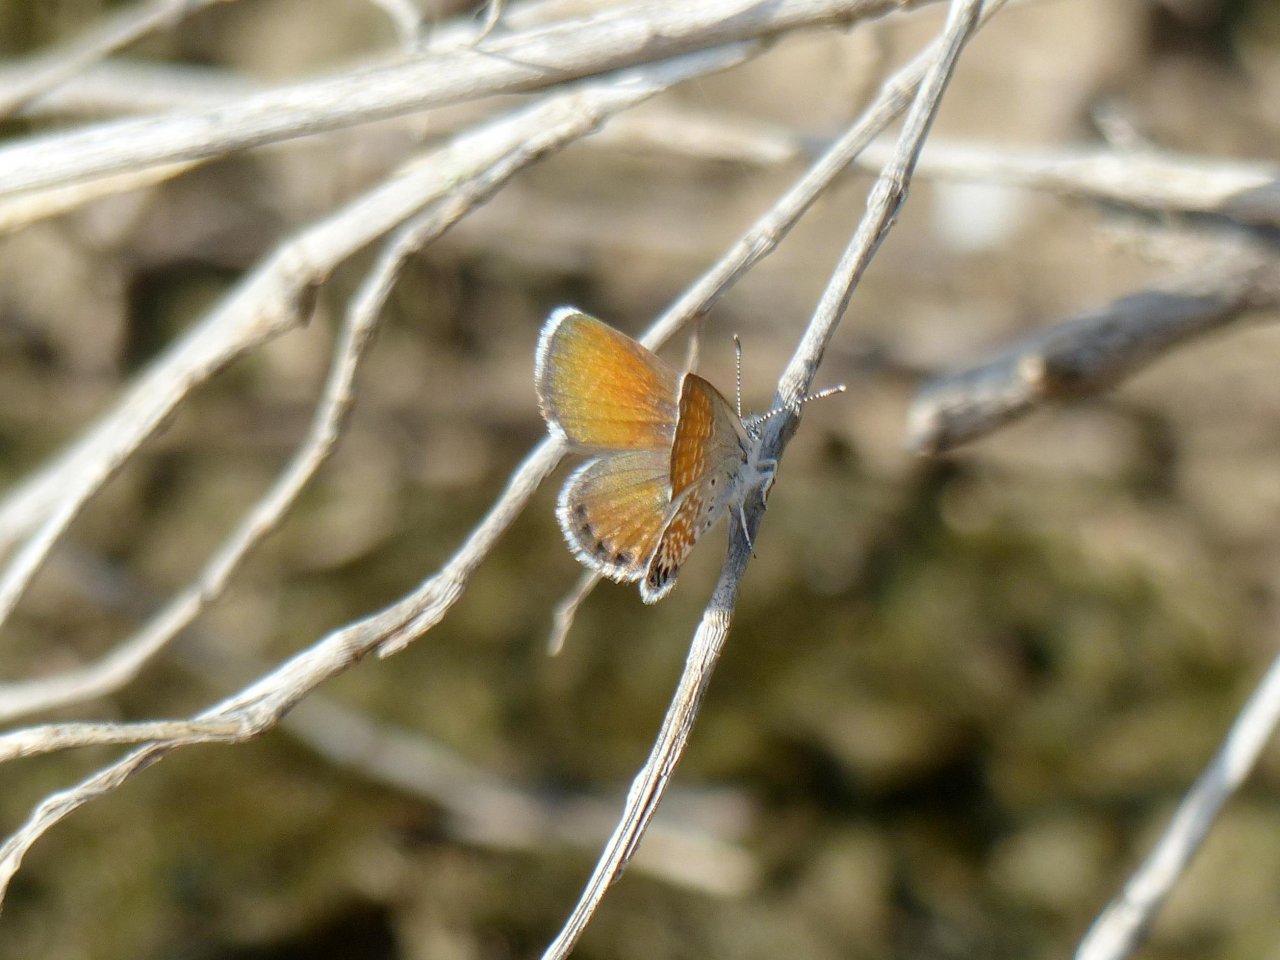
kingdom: Animalia
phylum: Arthropoda
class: Insecta
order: Lepidoptera
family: Lycaenidae
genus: Brephidium
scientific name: Brephidium exilis
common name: Western Pygmy-Blue
